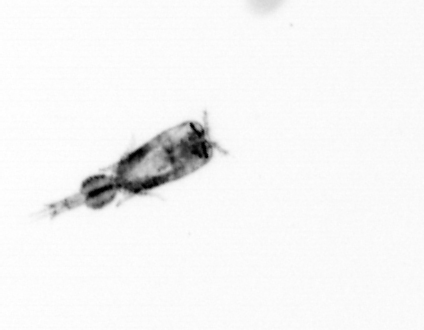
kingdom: Animalia
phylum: Arthropoda
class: Copepoda
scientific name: Copepoda
